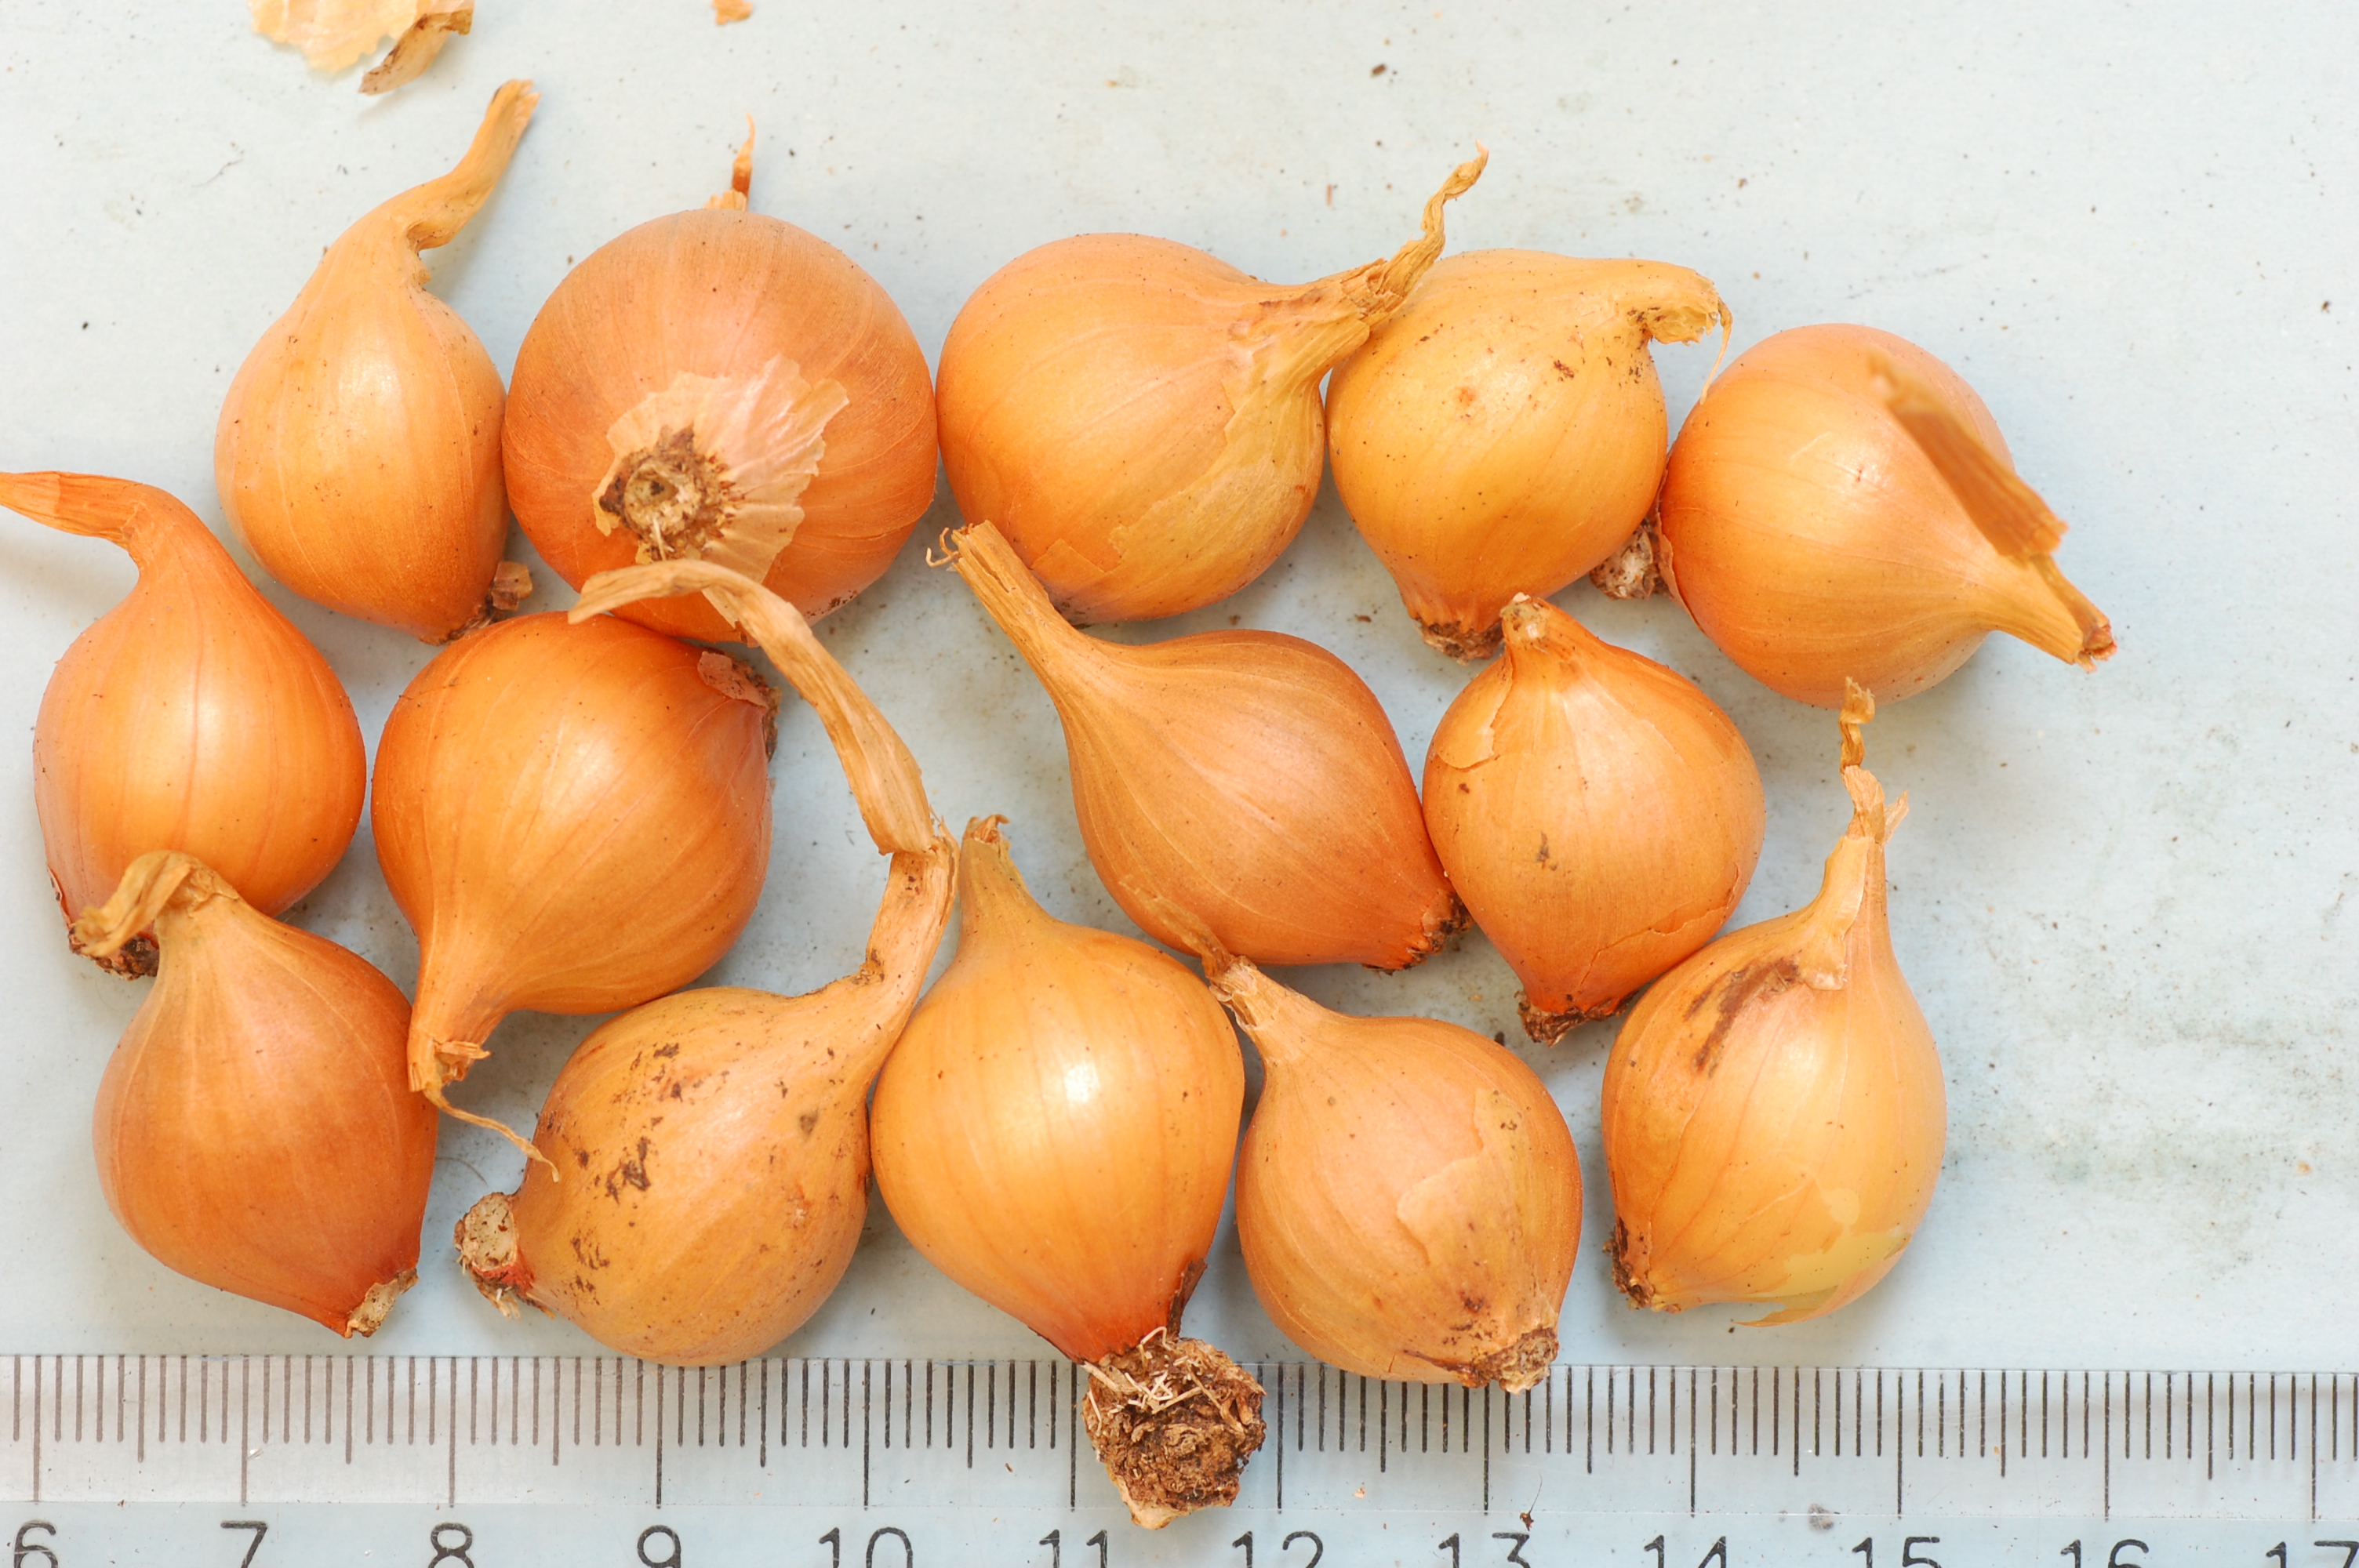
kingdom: Plantae
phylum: Tracheophyta
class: Liliopsida
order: Asparagales
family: Amaryllidaceae
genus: Allium
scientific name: Allium cepa
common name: Onion
